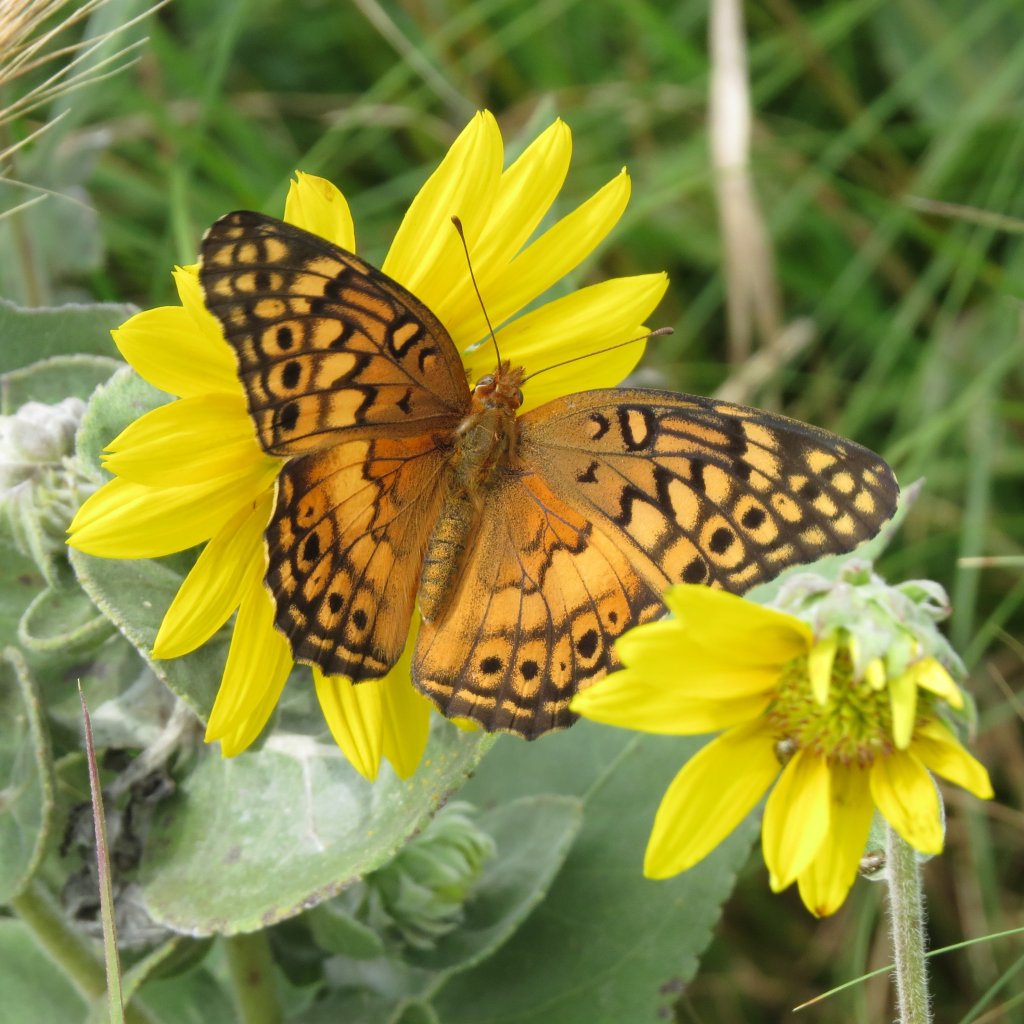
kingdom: Animalia
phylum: Arthropoda
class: Insecta
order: Lepidoptera
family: Nymphalidae
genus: Euptoieta
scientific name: Euptoieta claudia
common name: Variegated Fritillary
